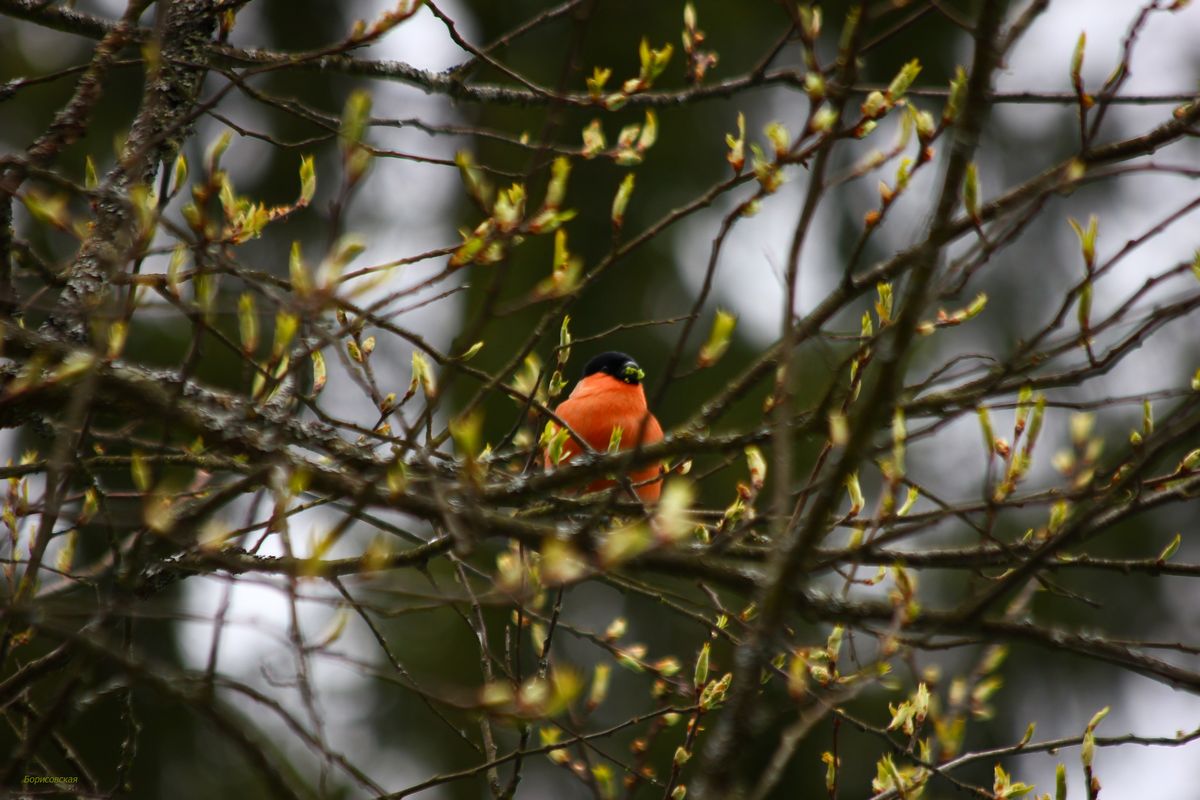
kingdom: Animalia
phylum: Chordata
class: Aves
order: Passeriformes
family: Fringillidae
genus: Pyrrhula
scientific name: Pyrrhula pyrrhula
